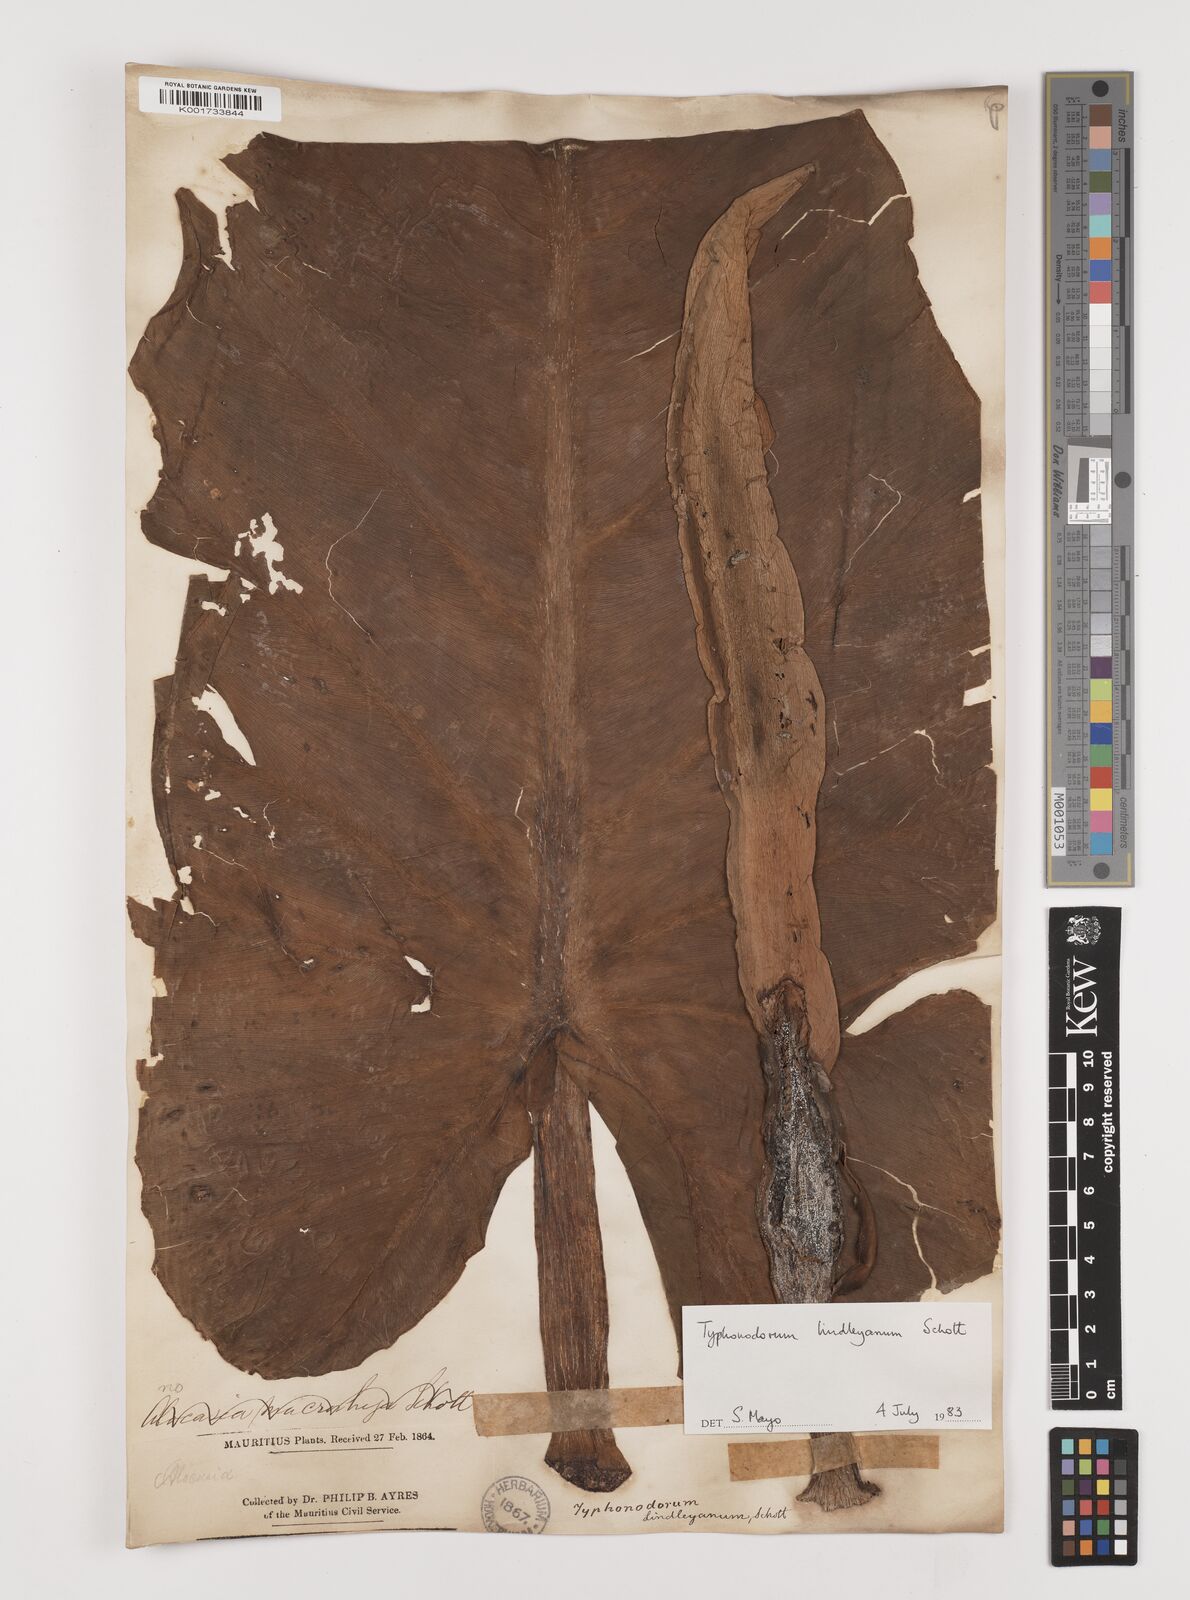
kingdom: Plantae
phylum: Tracheophyta
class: Liliopsida
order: Alismatales
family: Araceae
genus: Typhonodorum
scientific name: Typhonodorum lindleyanum
